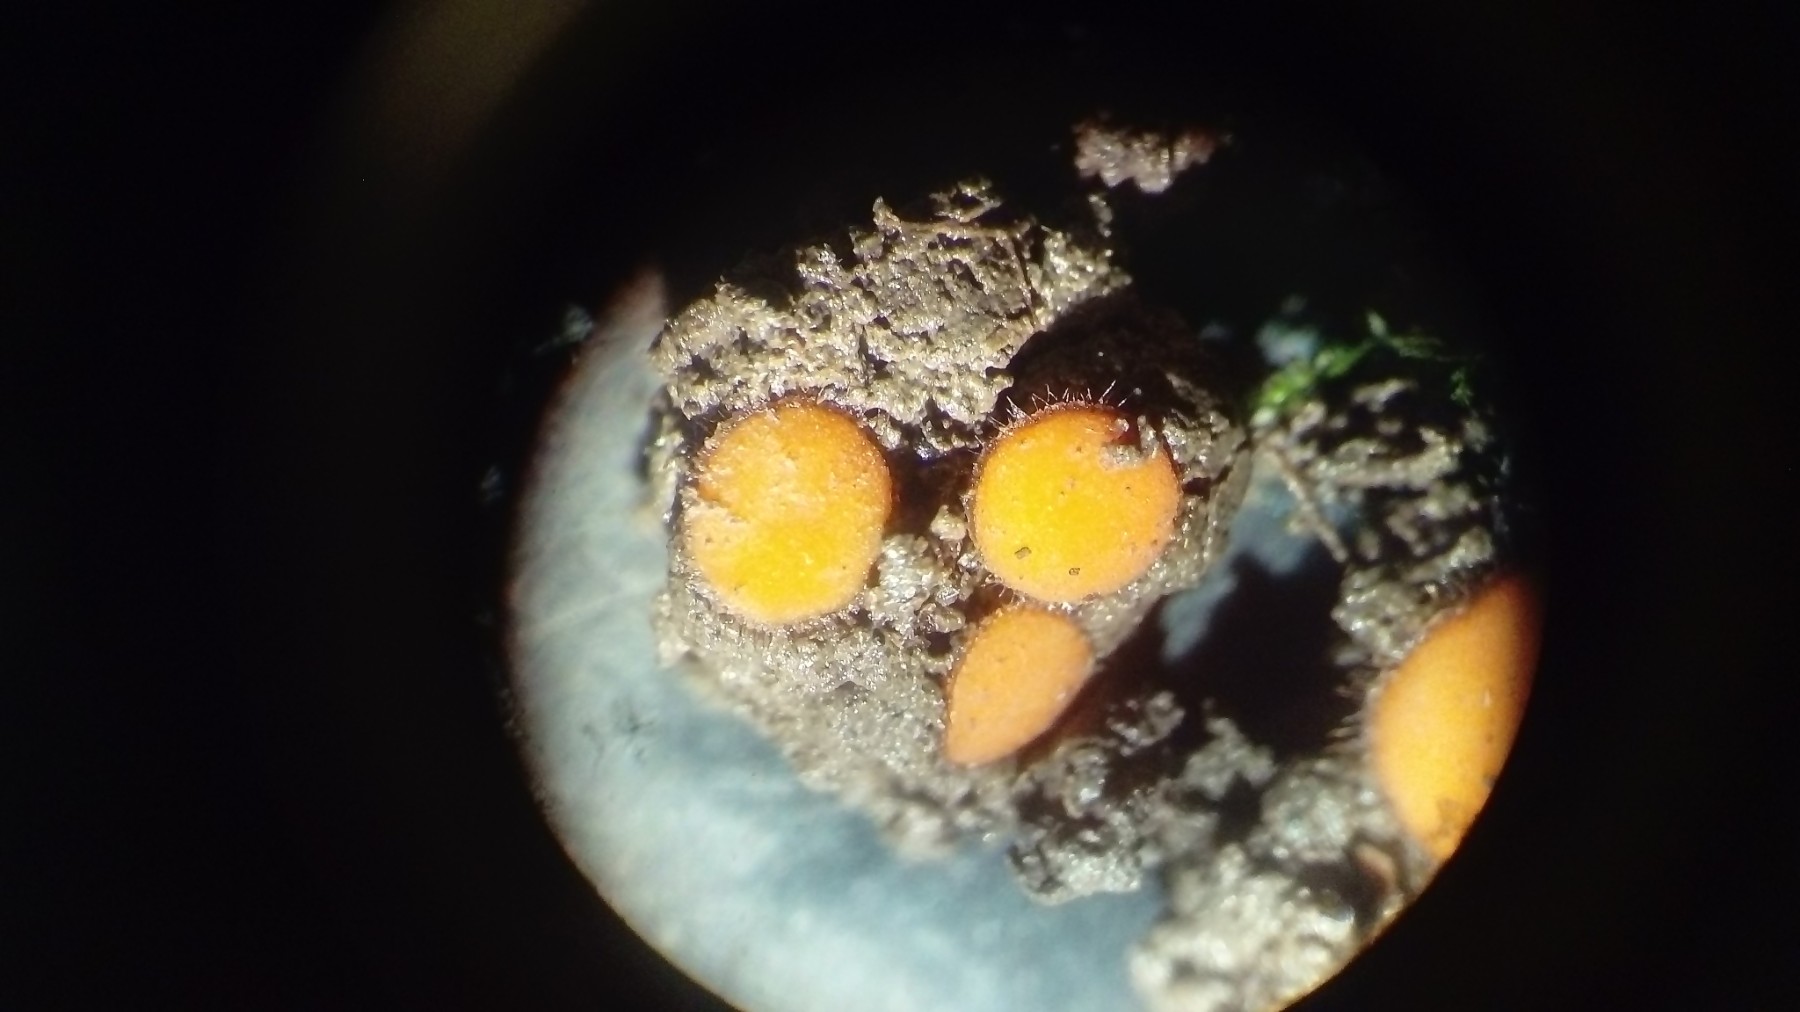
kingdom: Fungi
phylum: Ascomycota
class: Pezizomycetes
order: Pezizales
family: Pyronemataceae
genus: Scutellinia
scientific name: Scutellinia
